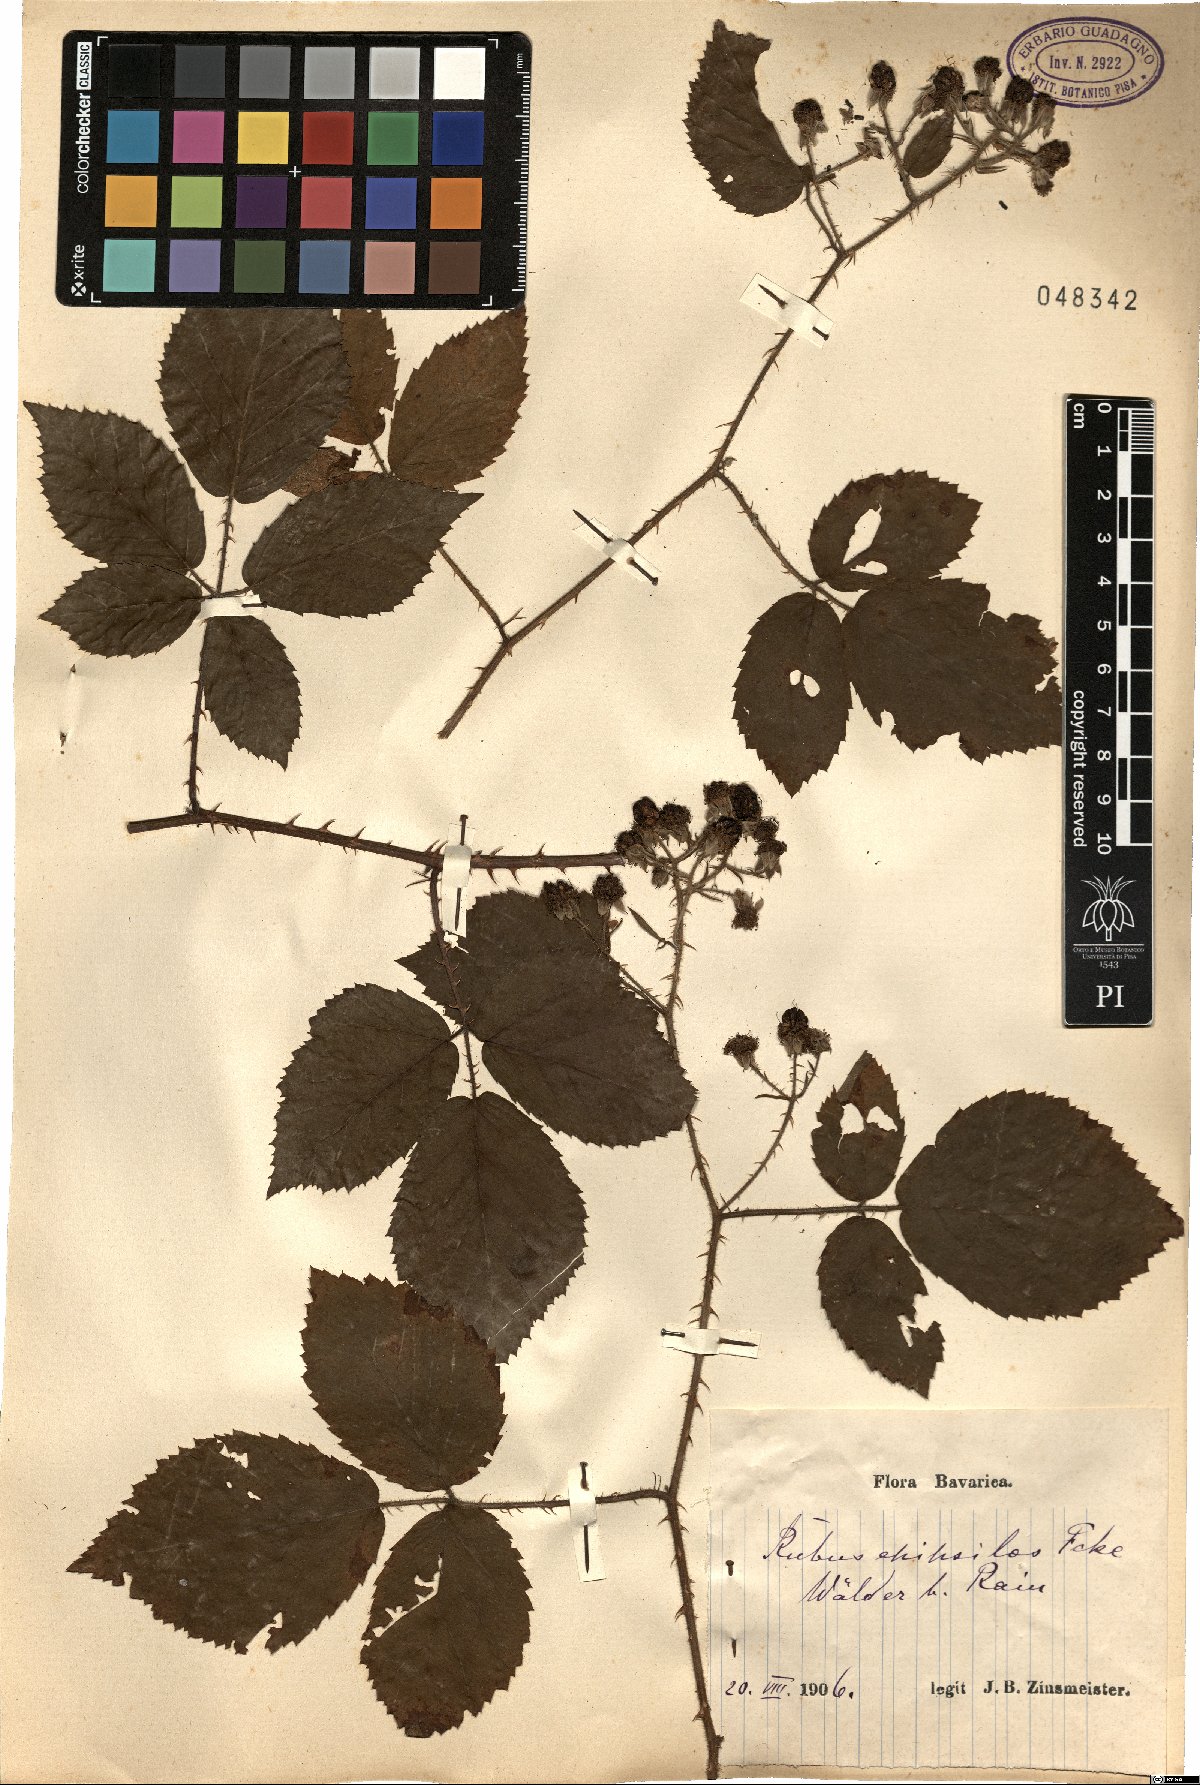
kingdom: Plantae
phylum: Tracheophyta
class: Magnoliopsida
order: Rosales
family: Rosaceae
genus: Rubus
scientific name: Rubus epipsilos
